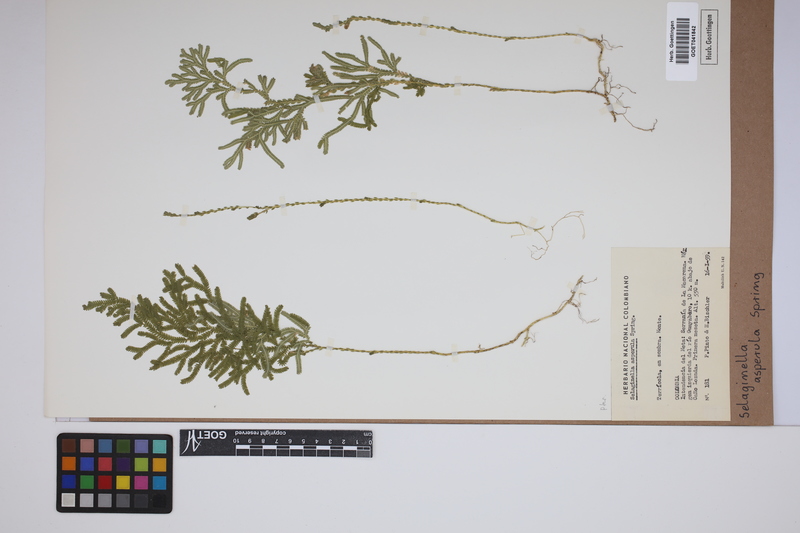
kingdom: Plantae
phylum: Tracheophyta
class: Lycopodiopsida
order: Selaginellales
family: Selaginellaceae
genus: Selaginella
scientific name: Selaginella asperula
